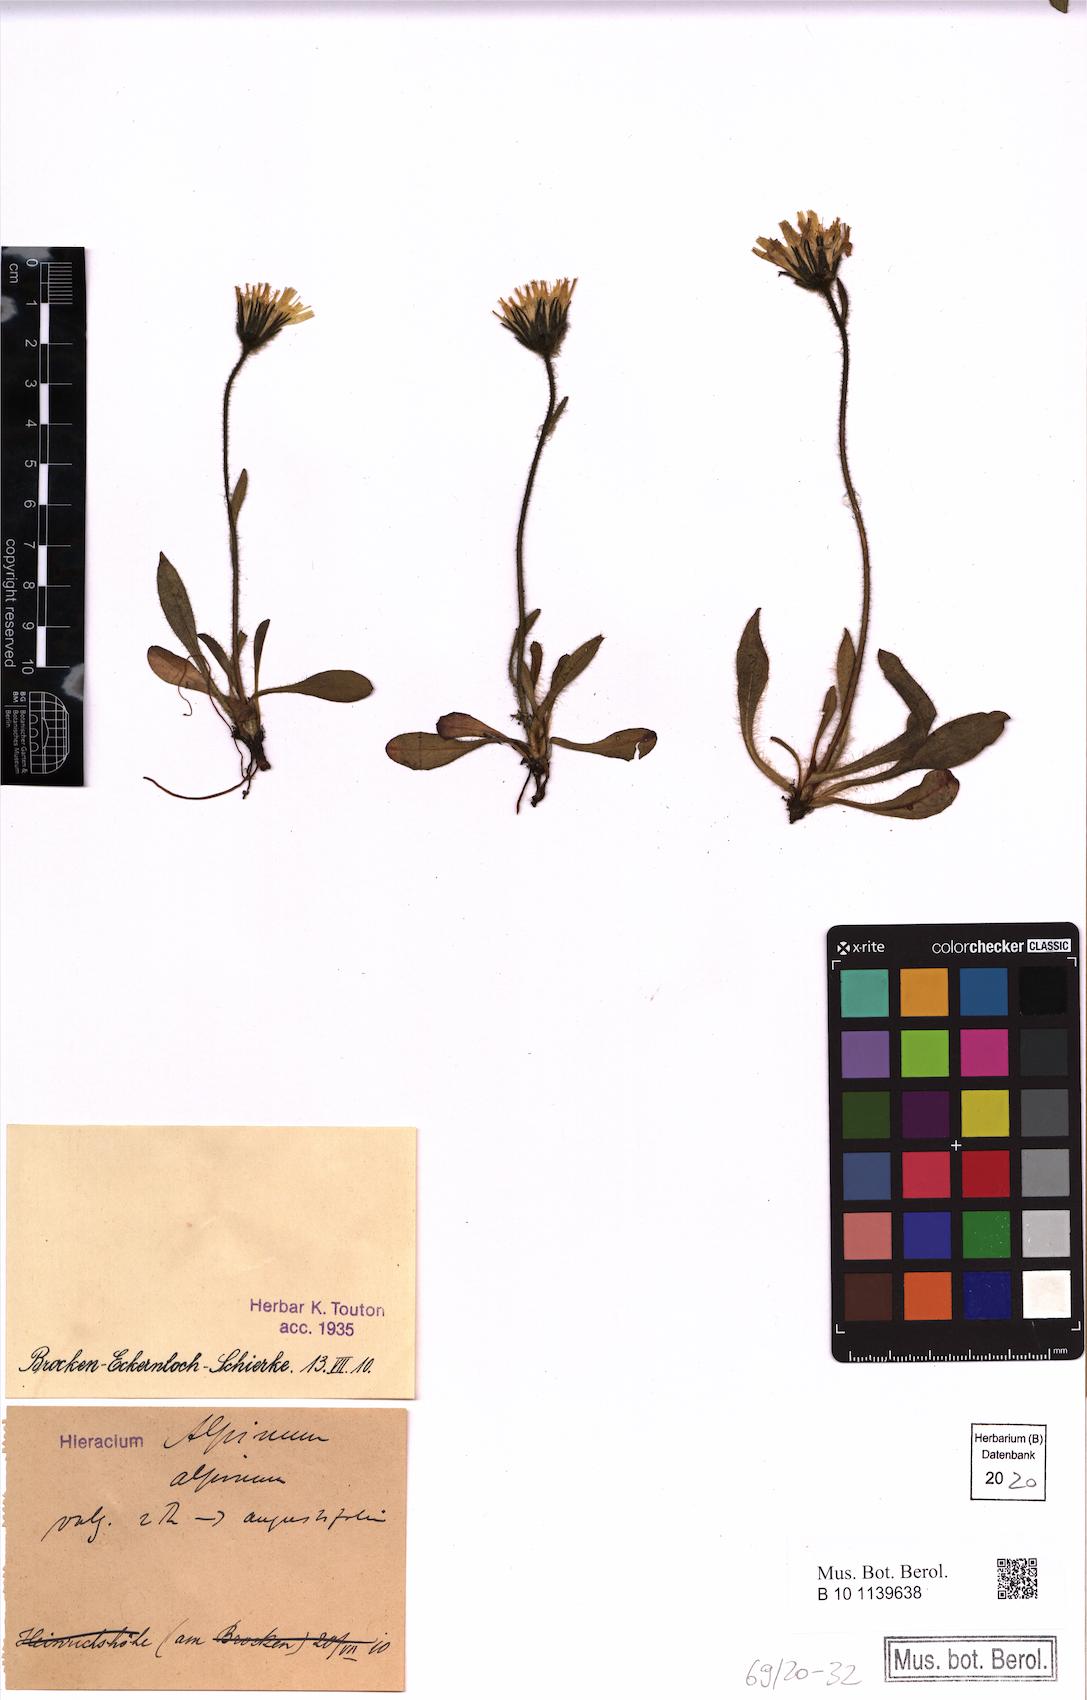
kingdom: Plantae
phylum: Tracheophyta
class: Magnoliopsida
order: Asterales
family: Asteraceae
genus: Hieracium
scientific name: Hieracium alpinum
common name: Alpine hawkweed
